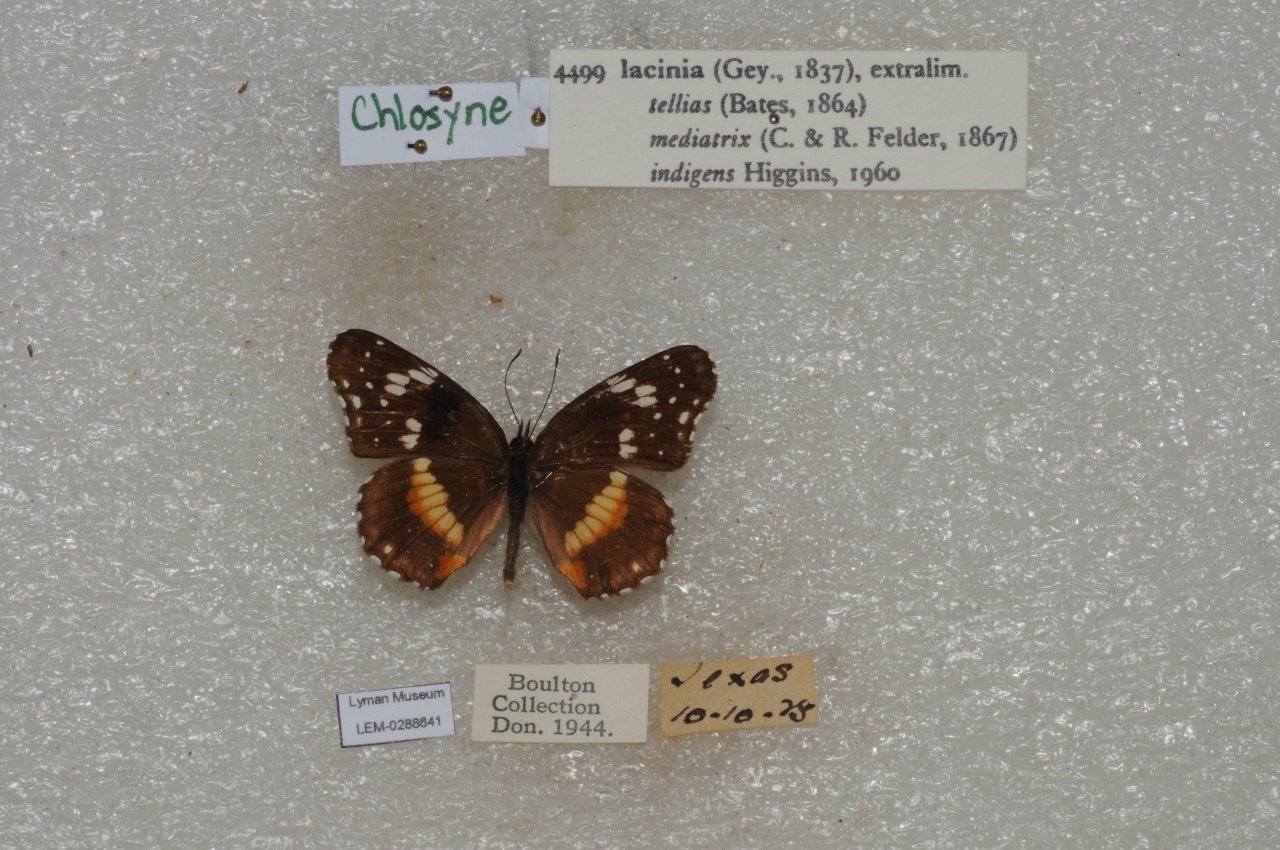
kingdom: Animalia
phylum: Arthropoda
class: Insecta
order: Lepidoptera
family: Nymphalidae
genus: Chlosyne
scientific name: Chlosyne lacinia
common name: Bordered Patch
